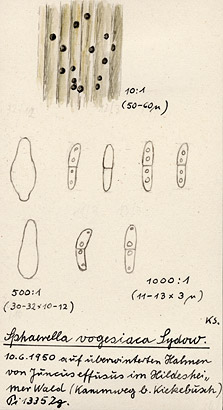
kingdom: Plantae
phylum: Tracheophyta
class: Liliopsida
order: Poales
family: Juncaceae
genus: Juncus
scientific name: Juncus effusus
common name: Soft rush
